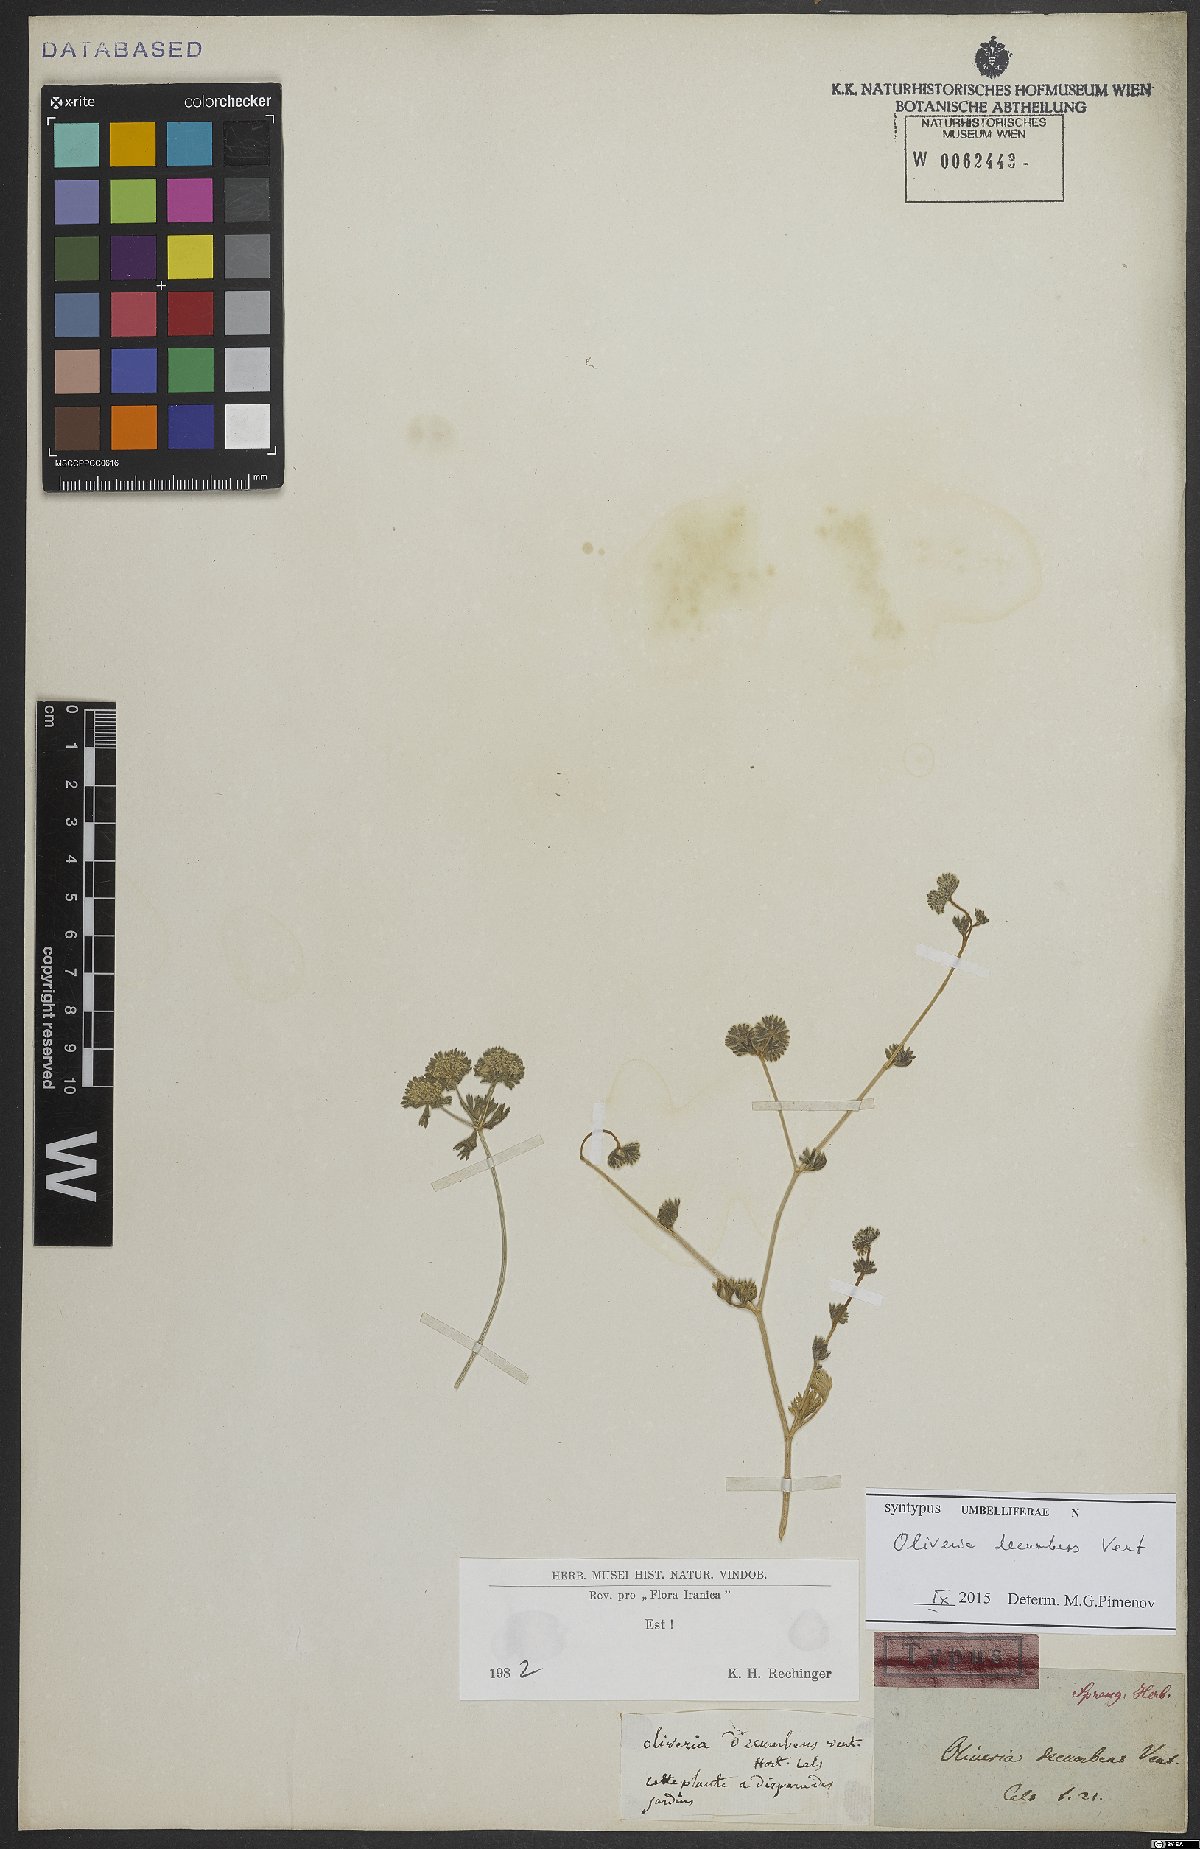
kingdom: Plantae
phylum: Tracheophyta
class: Magnoliopsida
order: Apiales
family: Apiaceae
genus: Oliveria
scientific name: Oliveria decumbens
